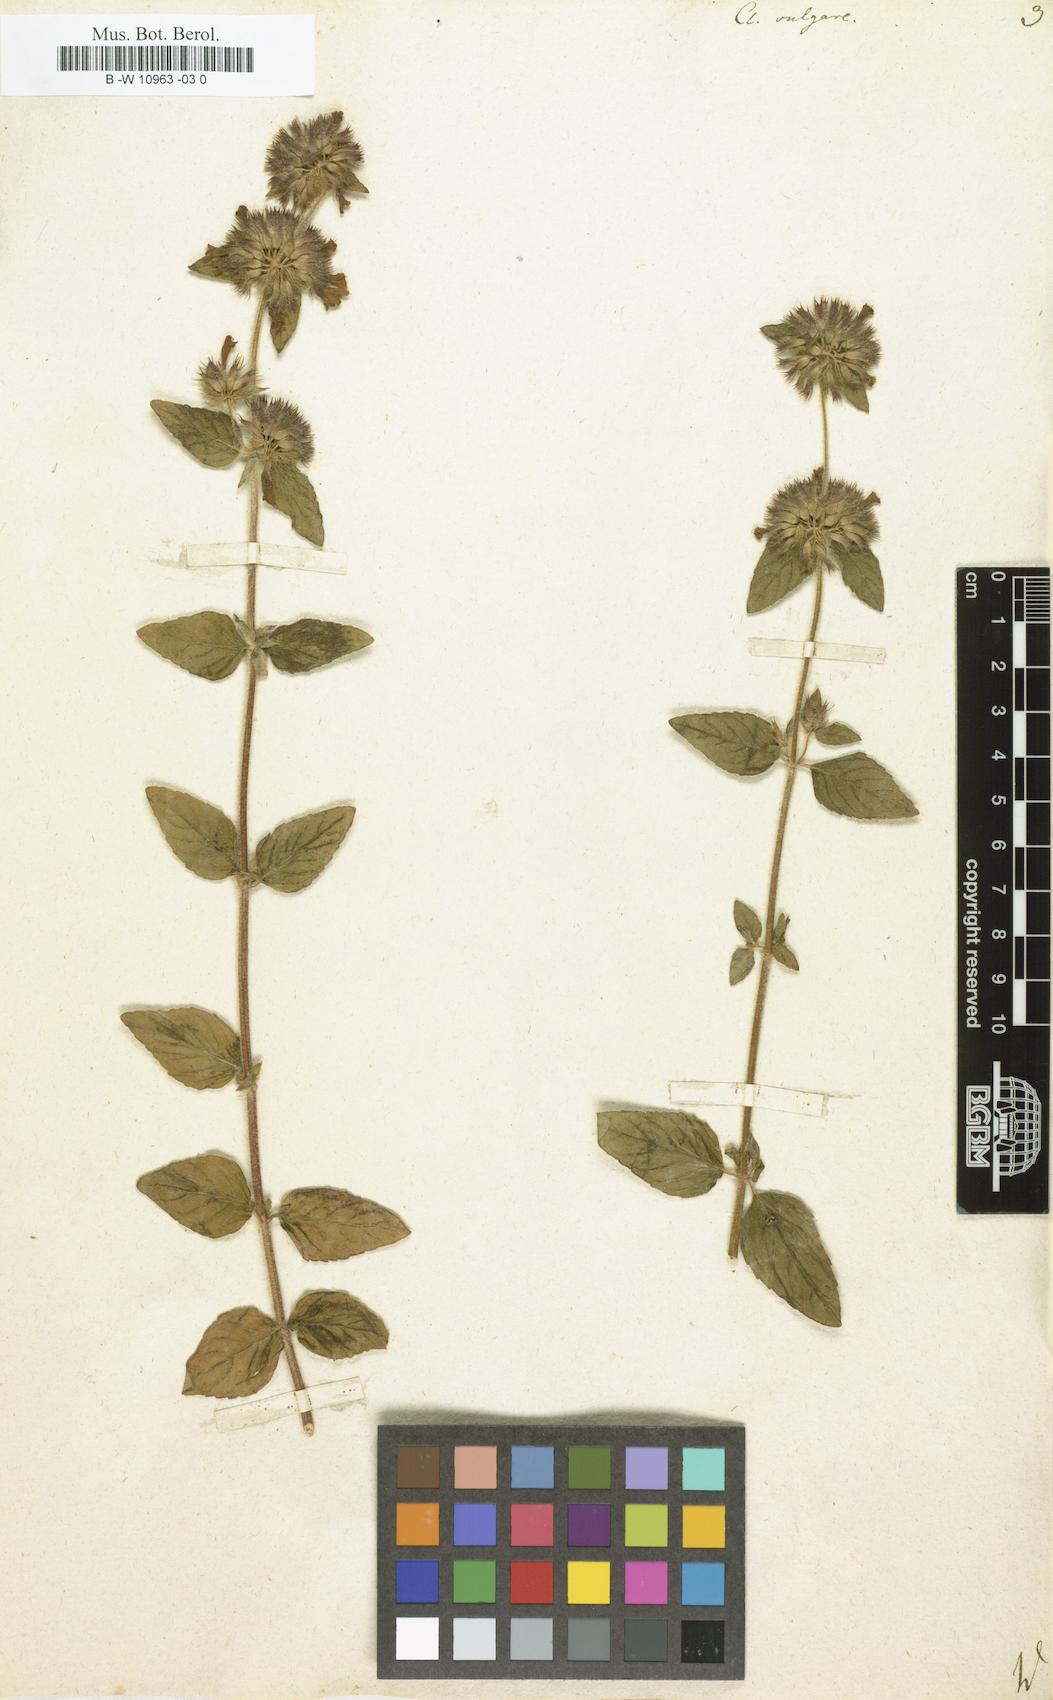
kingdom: Plantae
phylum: Tracheophyta
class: Magnoliopsida
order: Lamiales
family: Lamiaceae
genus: Clinopodium
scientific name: Clinopodium vulgare
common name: Wild basil
